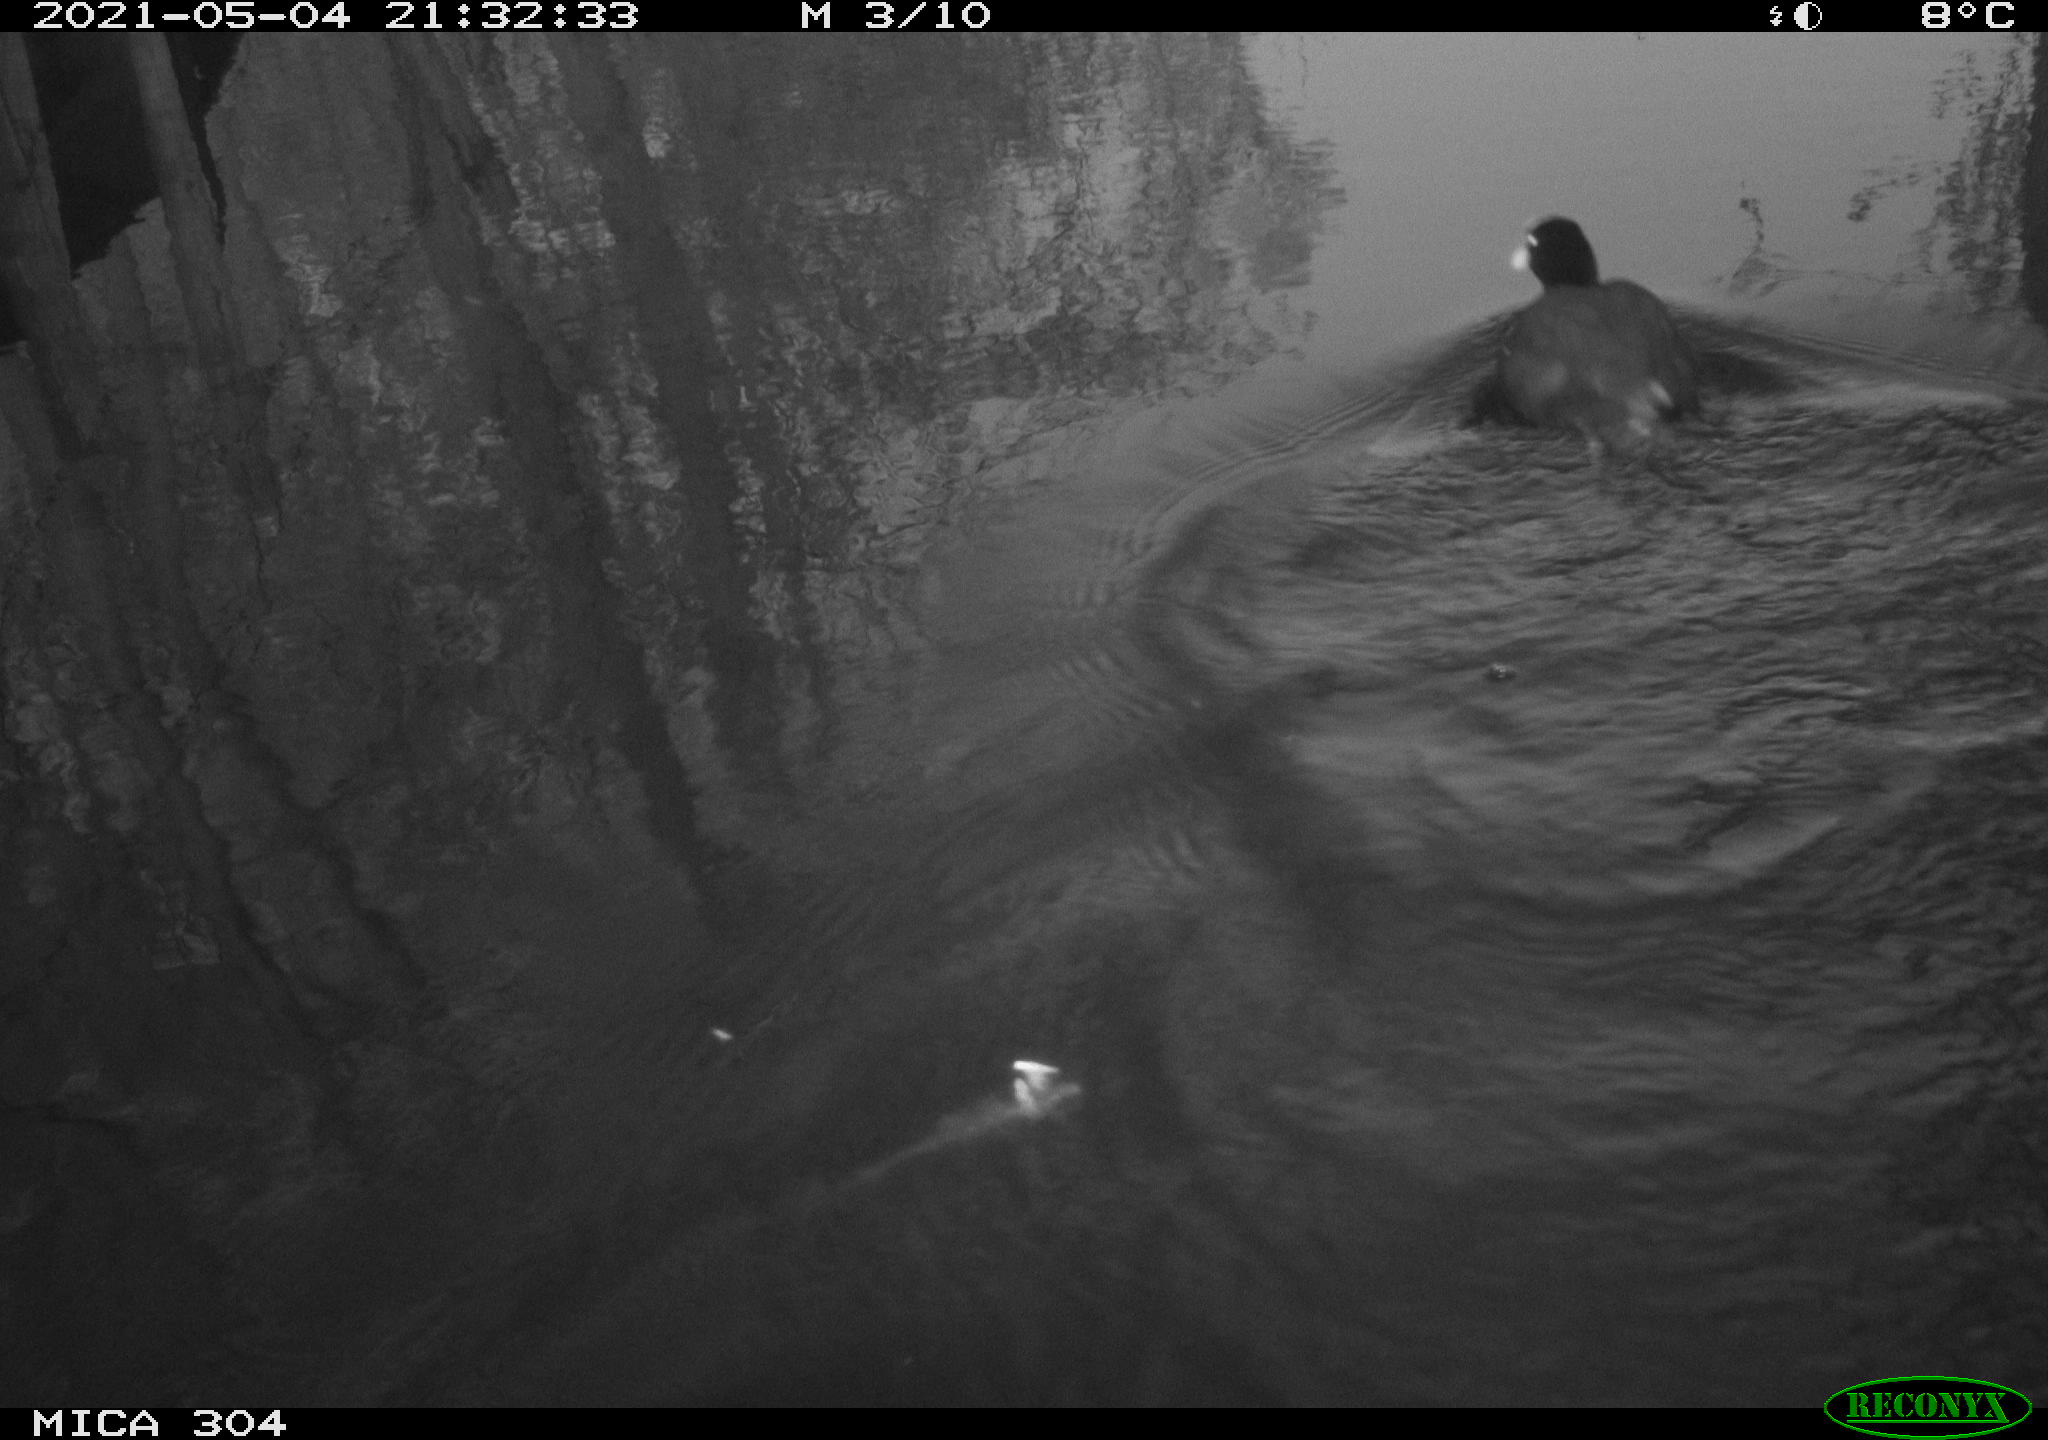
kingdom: Animalia
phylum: Chordata
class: Aves
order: Gruiformes
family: Rallidae
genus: Fulica
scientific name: Fulica atra
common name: Eurasian coot
